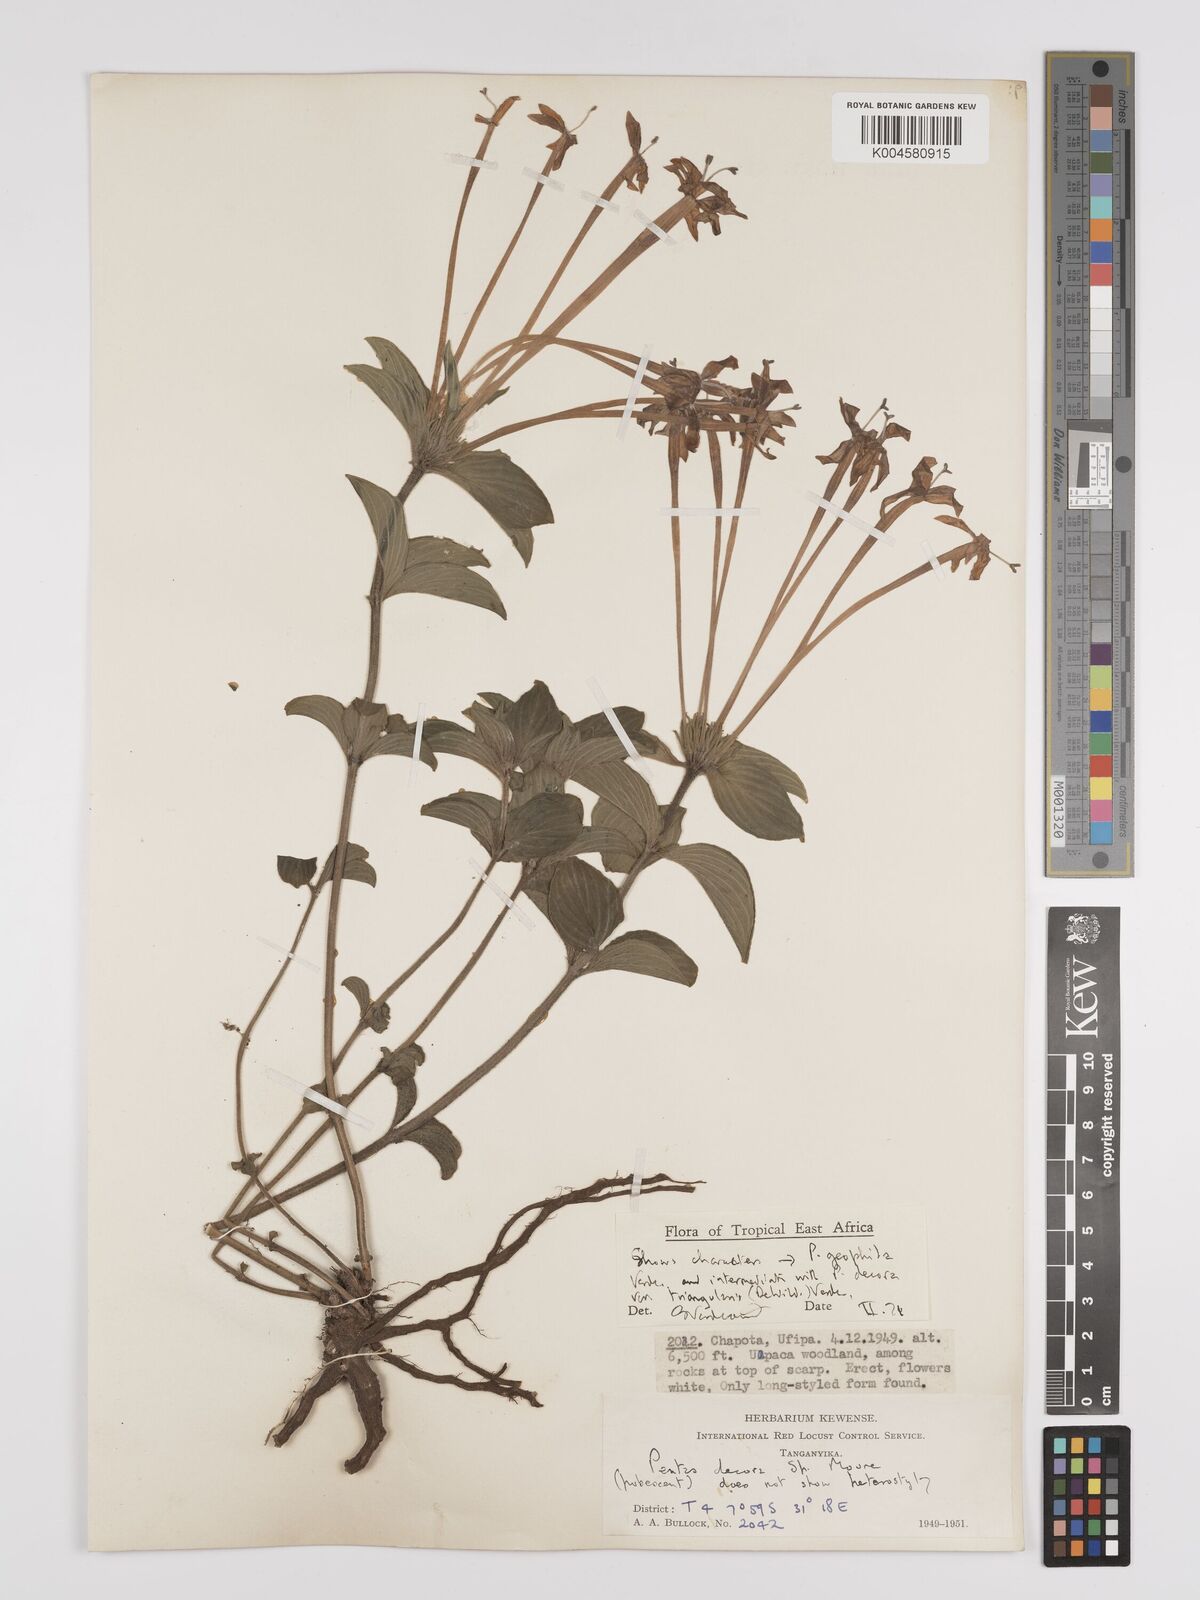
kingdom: Plantae
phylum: Tracheophyta
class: Magnoliopsida
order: Gentianales
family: Rubiaceae
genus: Dolichopentas
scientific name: Dolichopentas lindenioides
